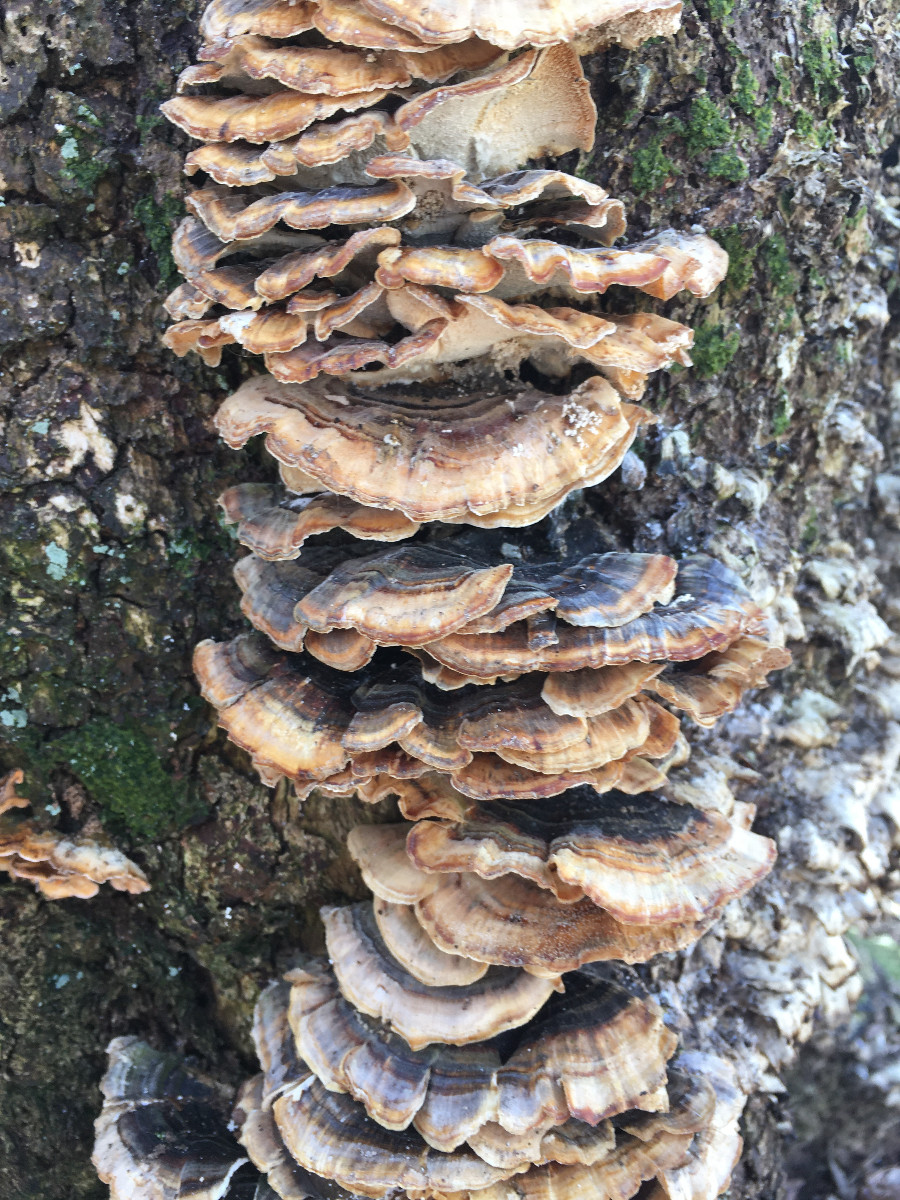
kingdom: Fungi
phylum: Basidiomycota
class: Agaricomycetes
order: Polyporales
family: Polyporaceae
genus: Trametes
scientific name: Trametes versicolor
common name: broget læderporesvamp
